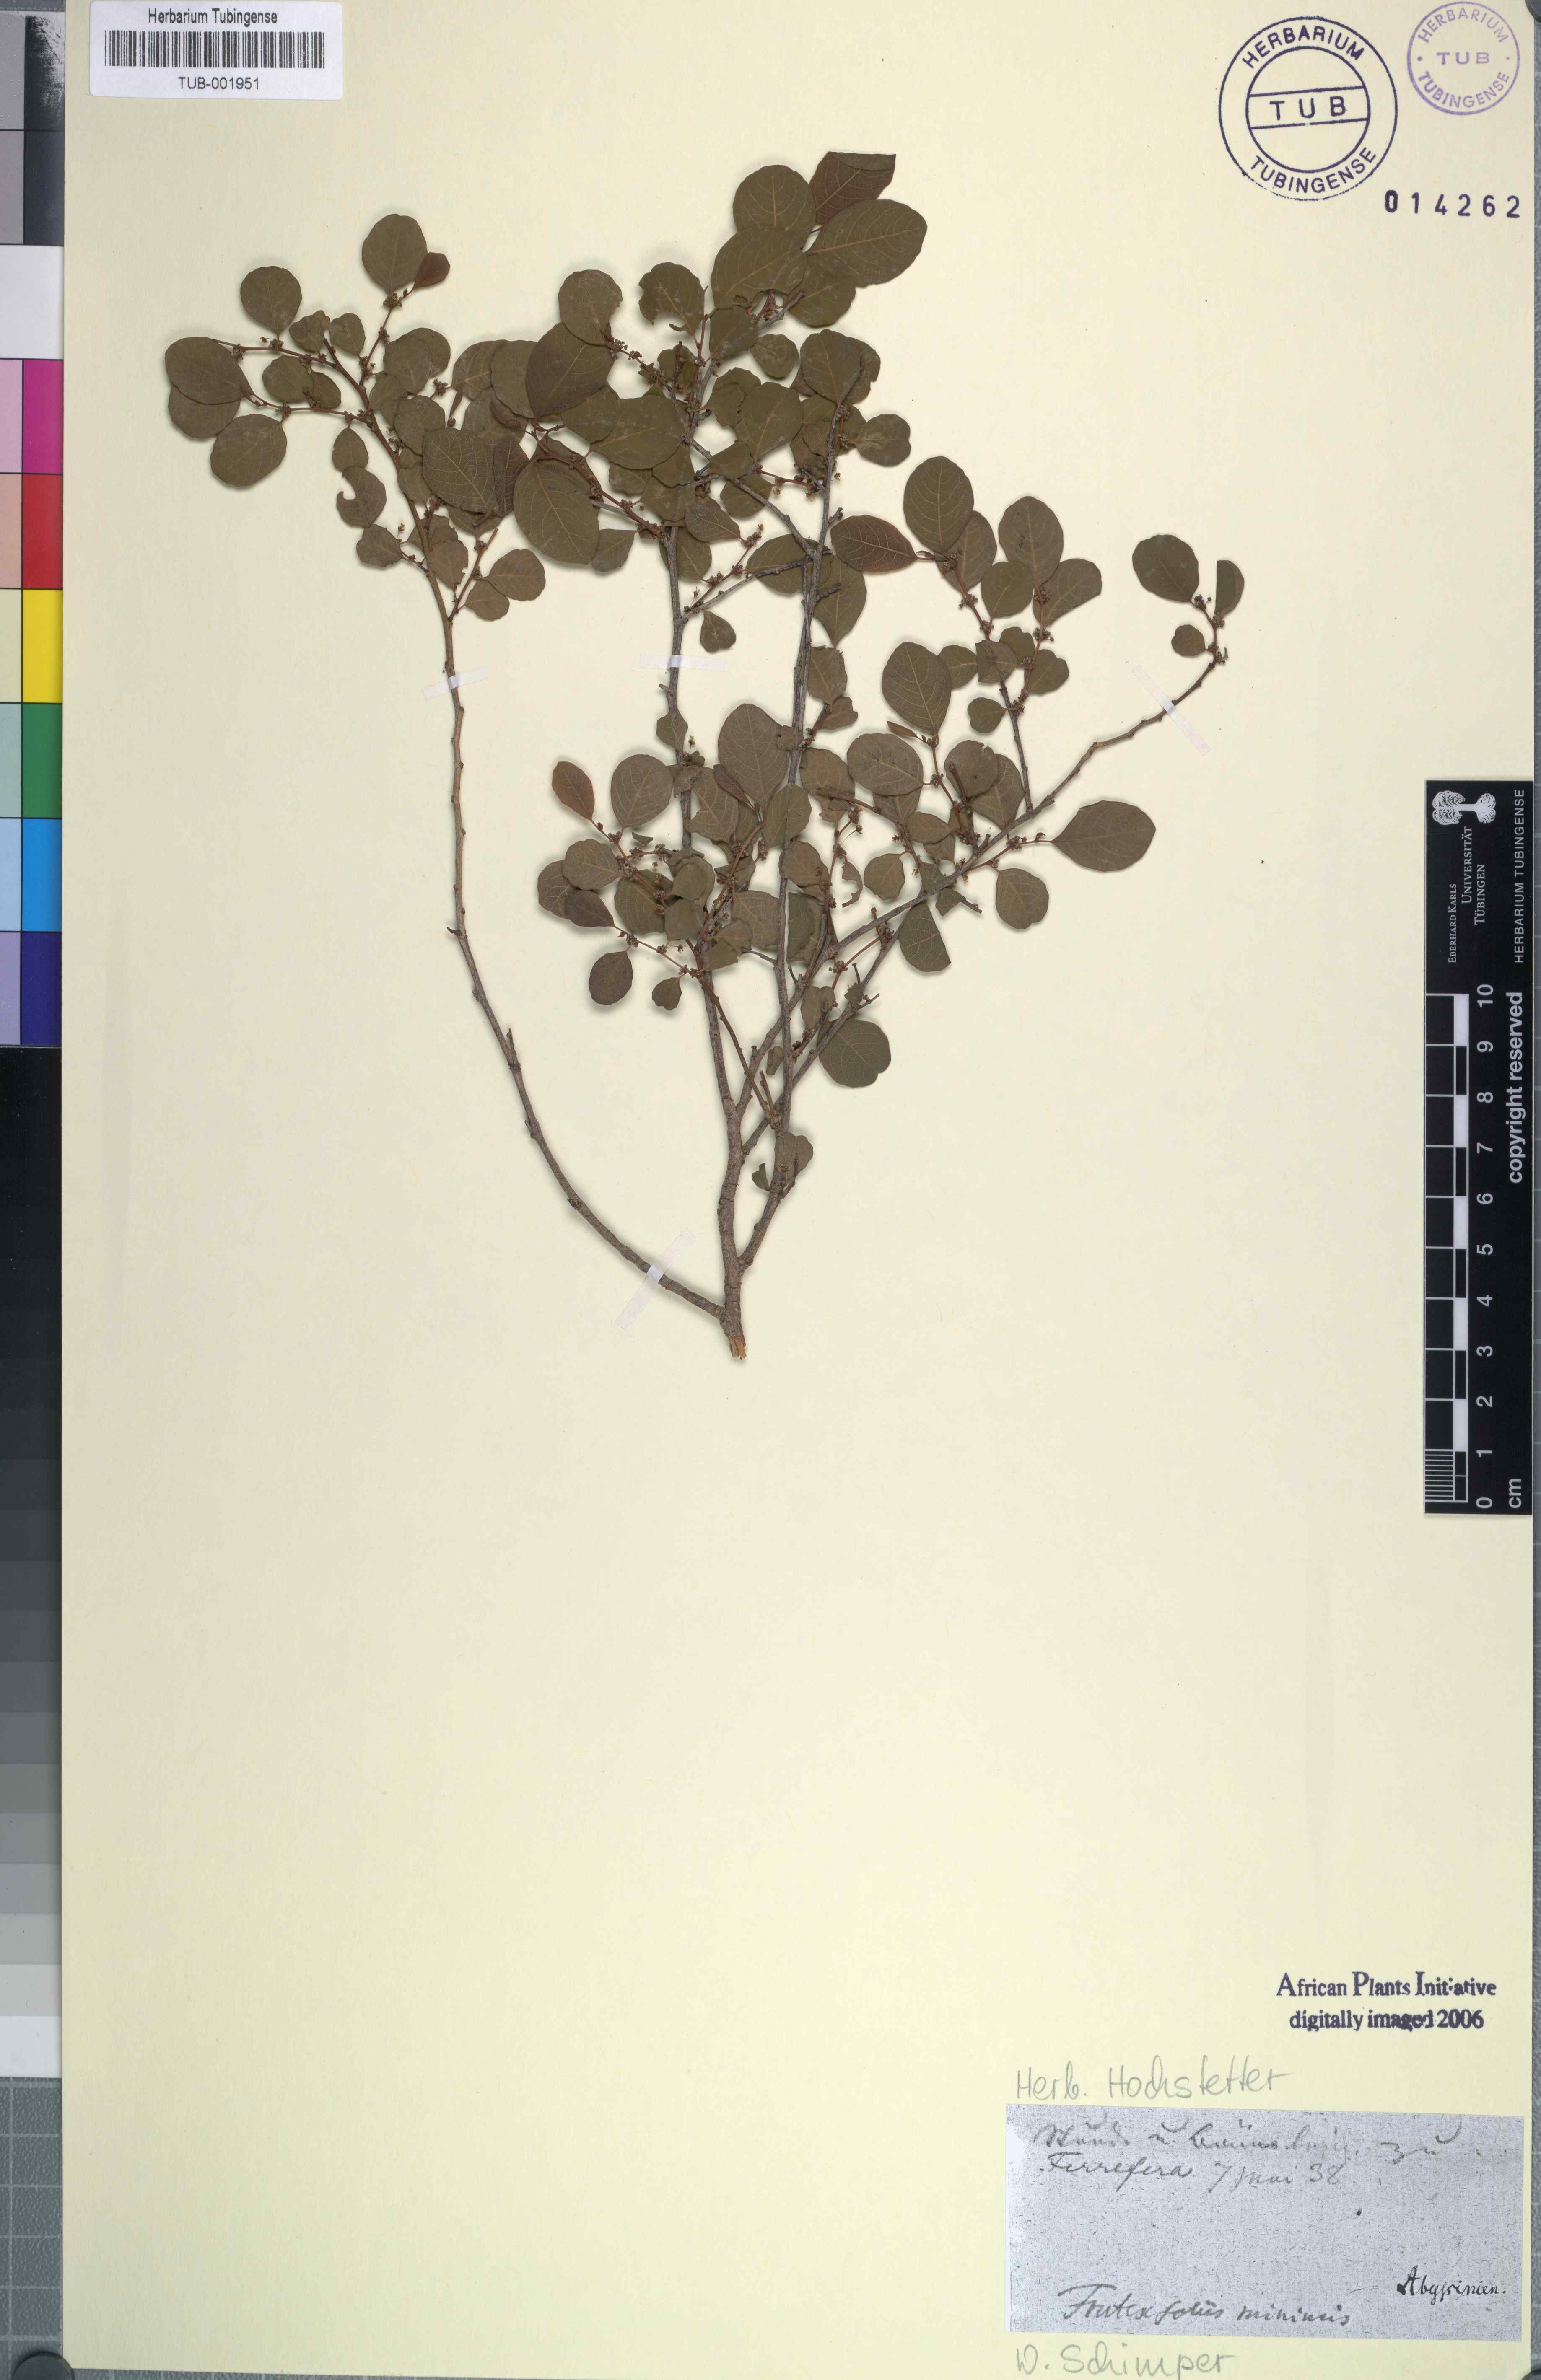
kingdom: Plantae
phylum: Tracheophyta
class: Magnoliopsida
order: Malpighiales
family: Phyllanthaceae
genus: Flueggea
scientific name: Flueggea virosa
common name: Common bushweed
